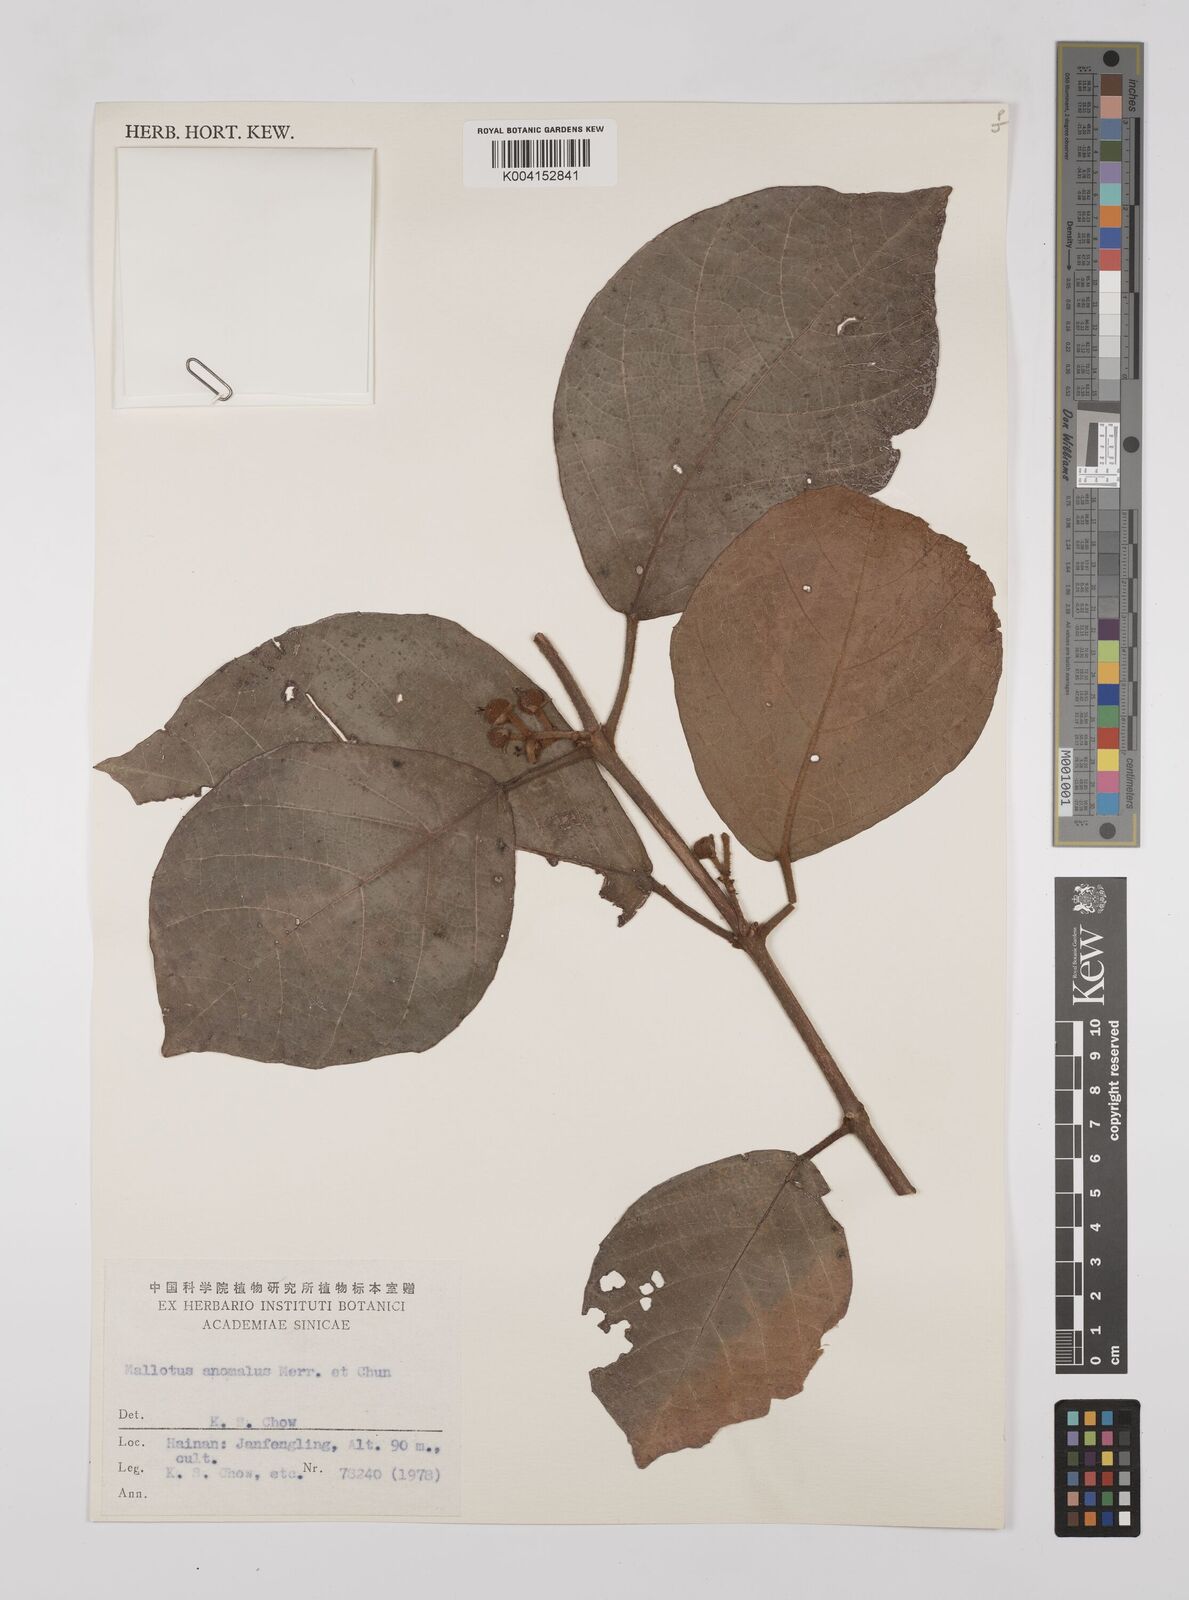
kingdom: Plantae
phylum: Tracheophyta
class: Magnoliopsida
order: Malpighiales
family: Euphorbiaceae
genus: Mallotus
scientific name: Mallotus anomalus
